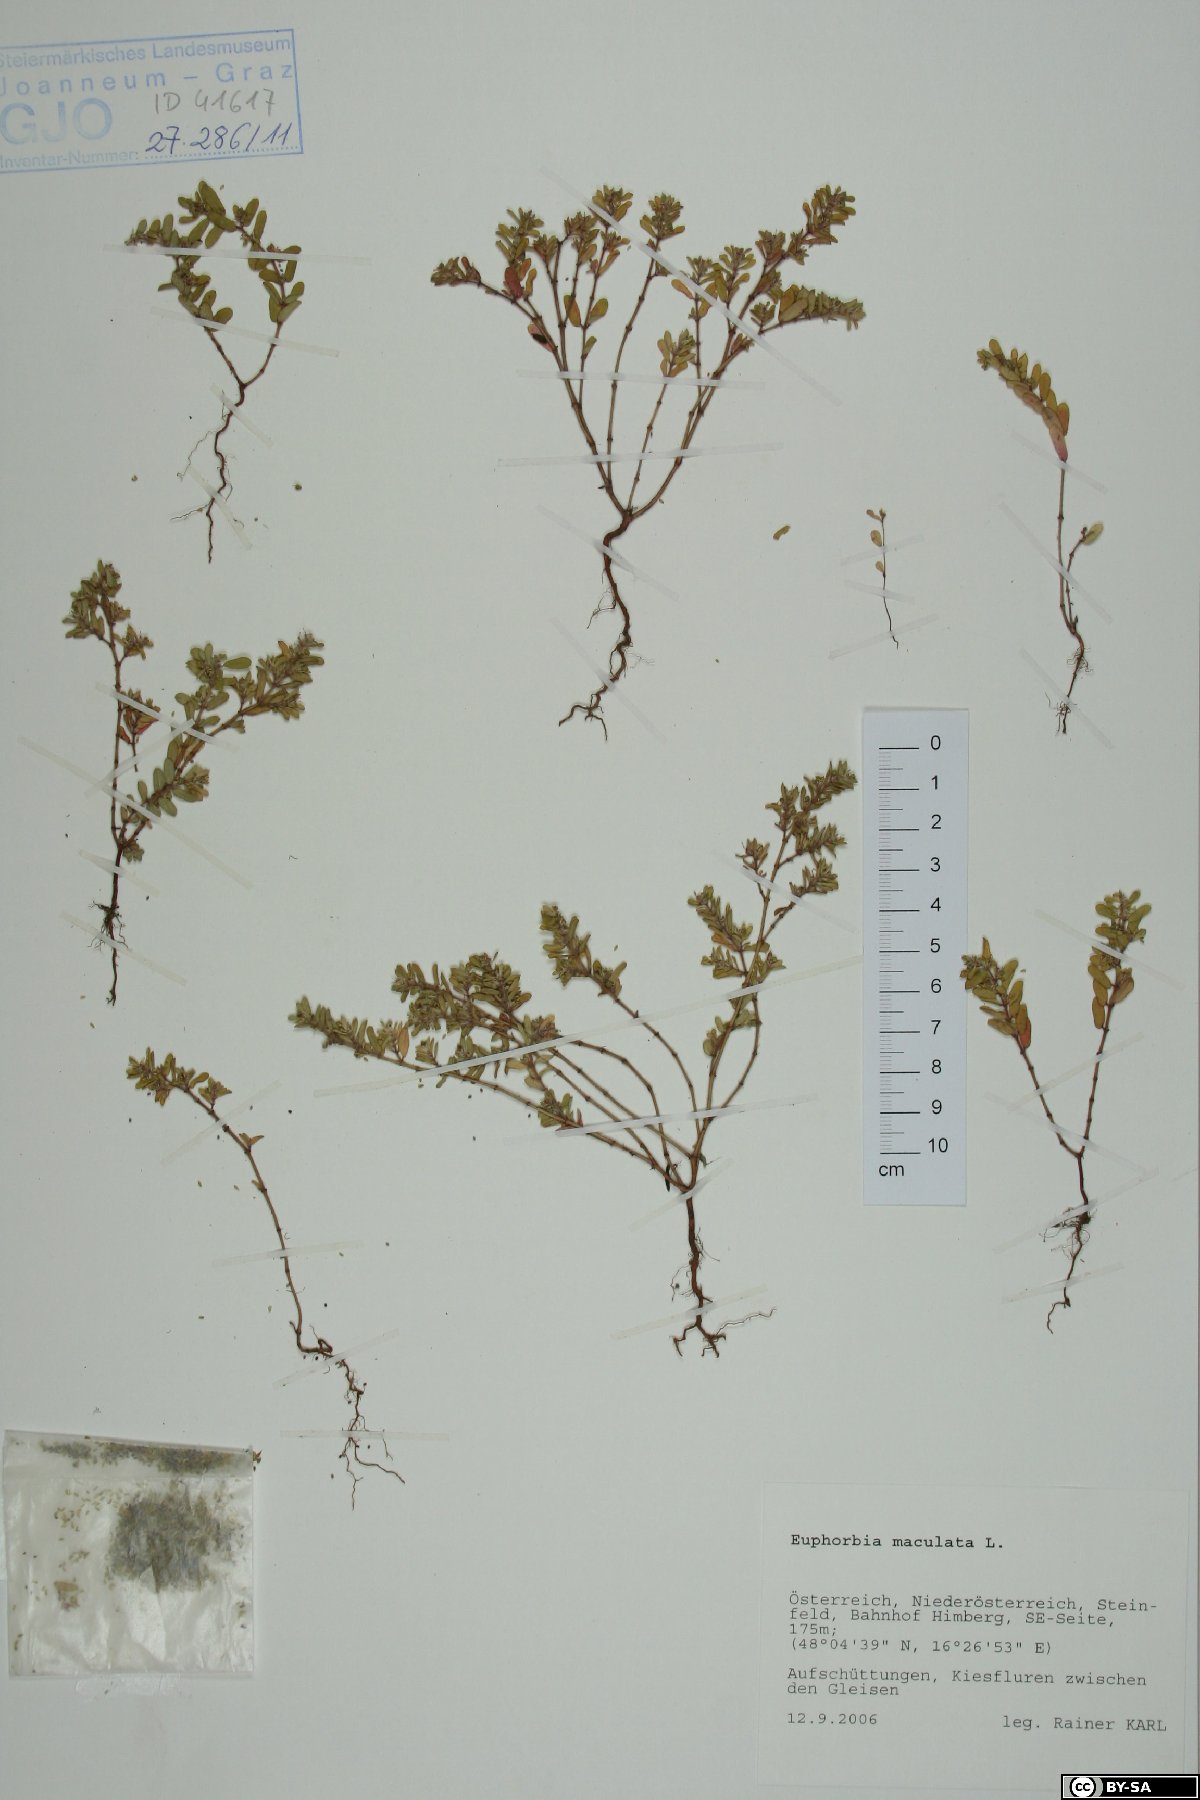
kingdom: Plantae
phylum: Tracheophyta
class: Magnoliopsida
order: Malpighiales
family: Euphorbiaceae
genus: Euphorbia
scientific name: Euphorbia maculata
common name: Spotted spurge
